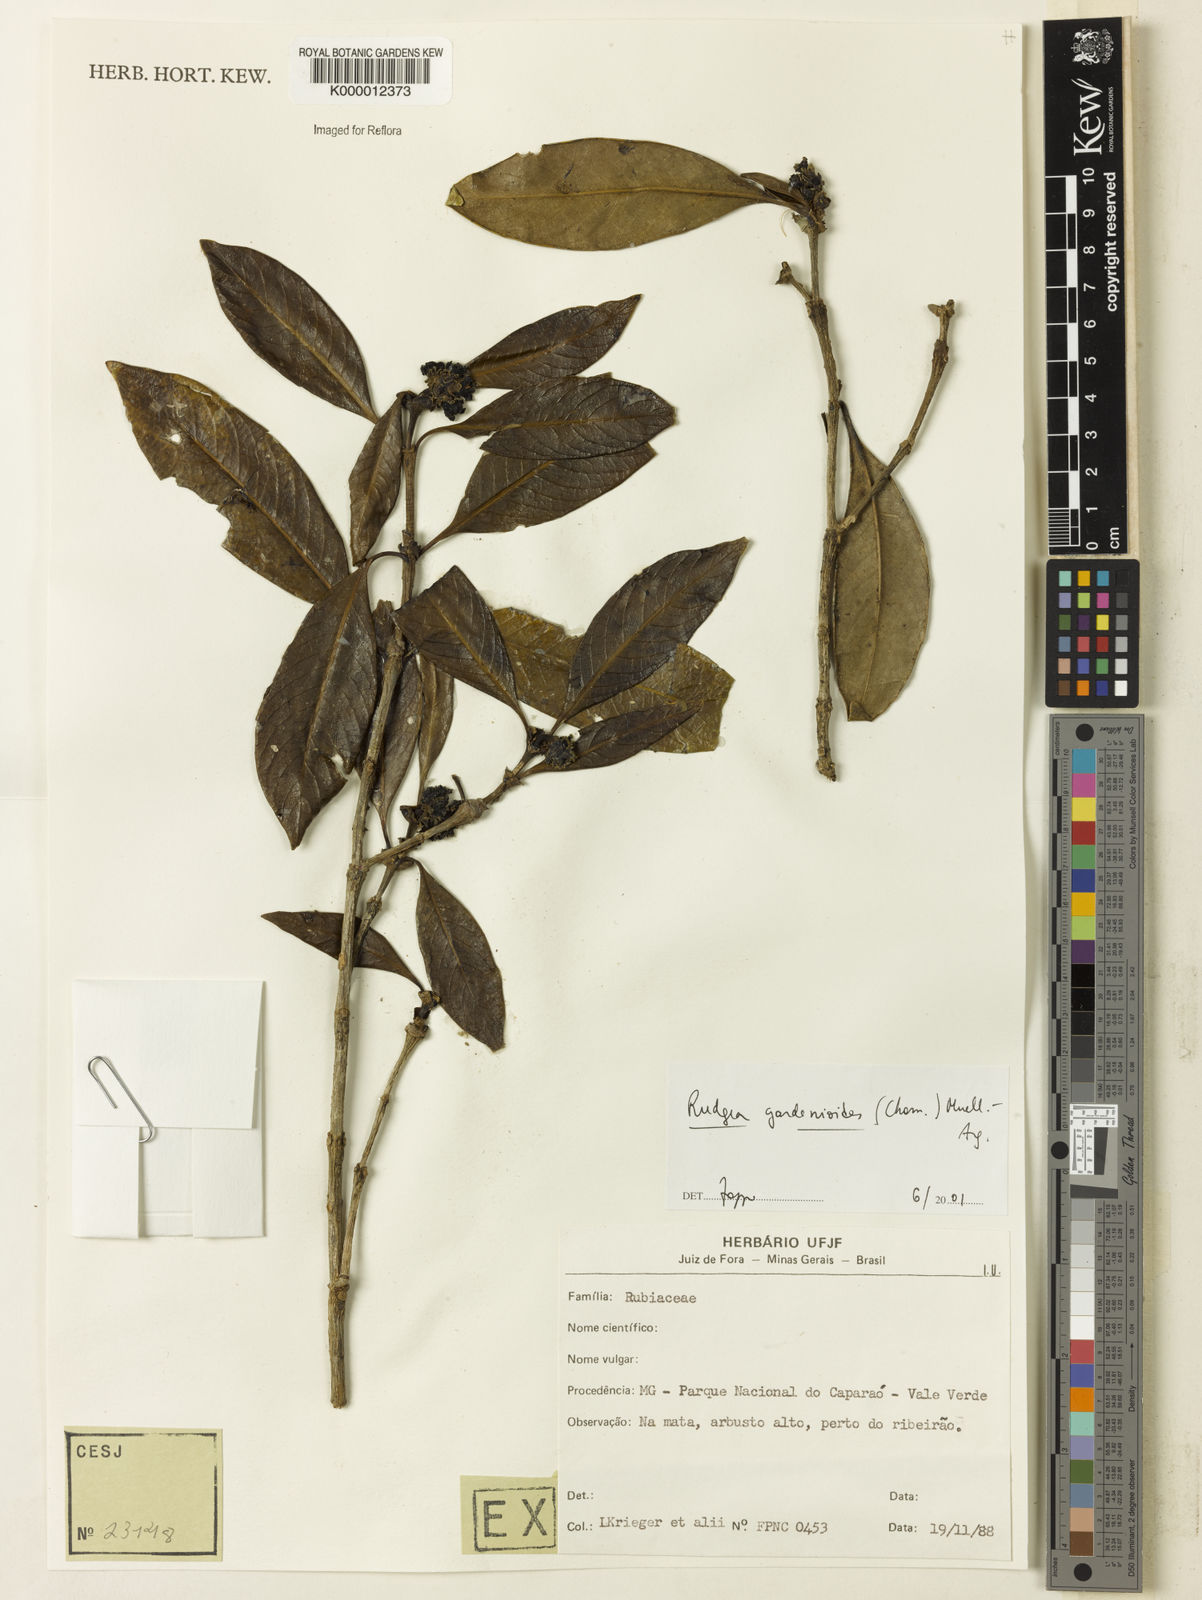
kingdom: Plantae
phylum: Tracheophyta
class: Magnoliopsida
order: Gentianales
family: Rubiaceae
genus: Rudgea
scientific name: Rudgea
